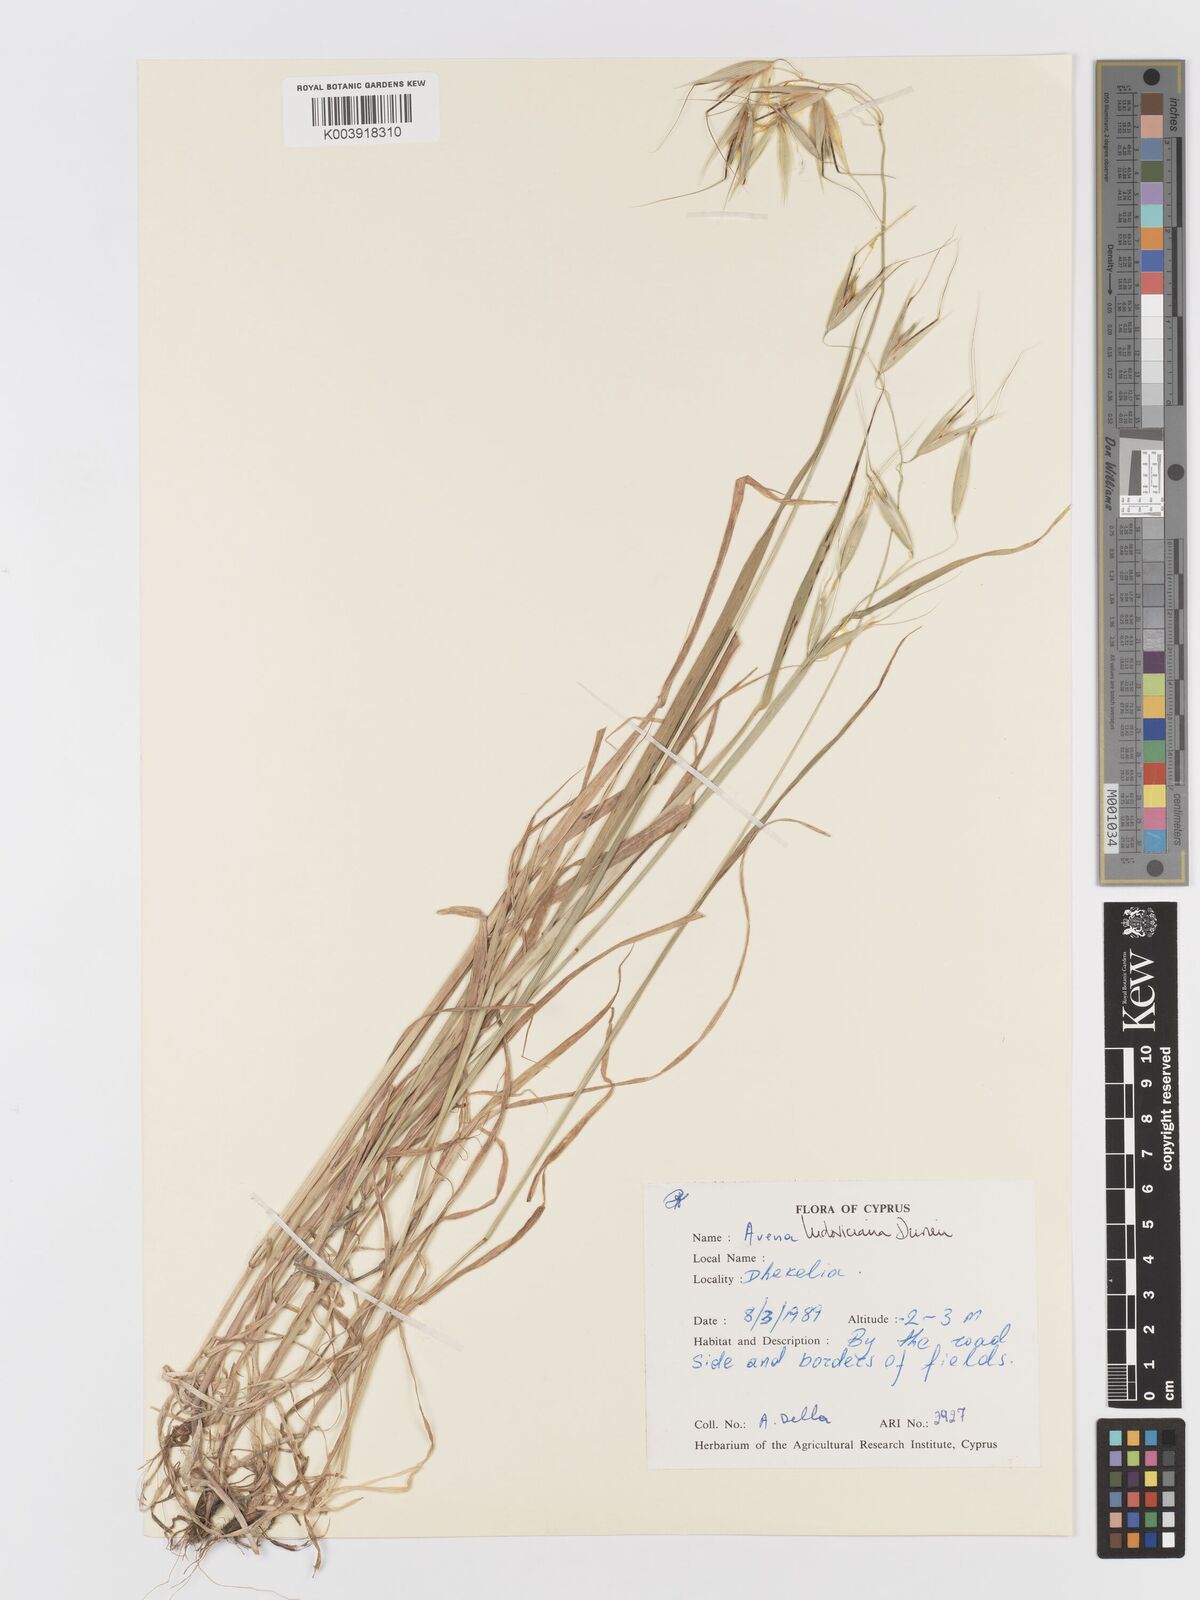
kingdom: Plantae
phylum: Tracheophyta
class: Liliopsida
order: Poales
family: Poaceae
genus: Avena
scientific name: Avena sterilis
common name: Animated oat
